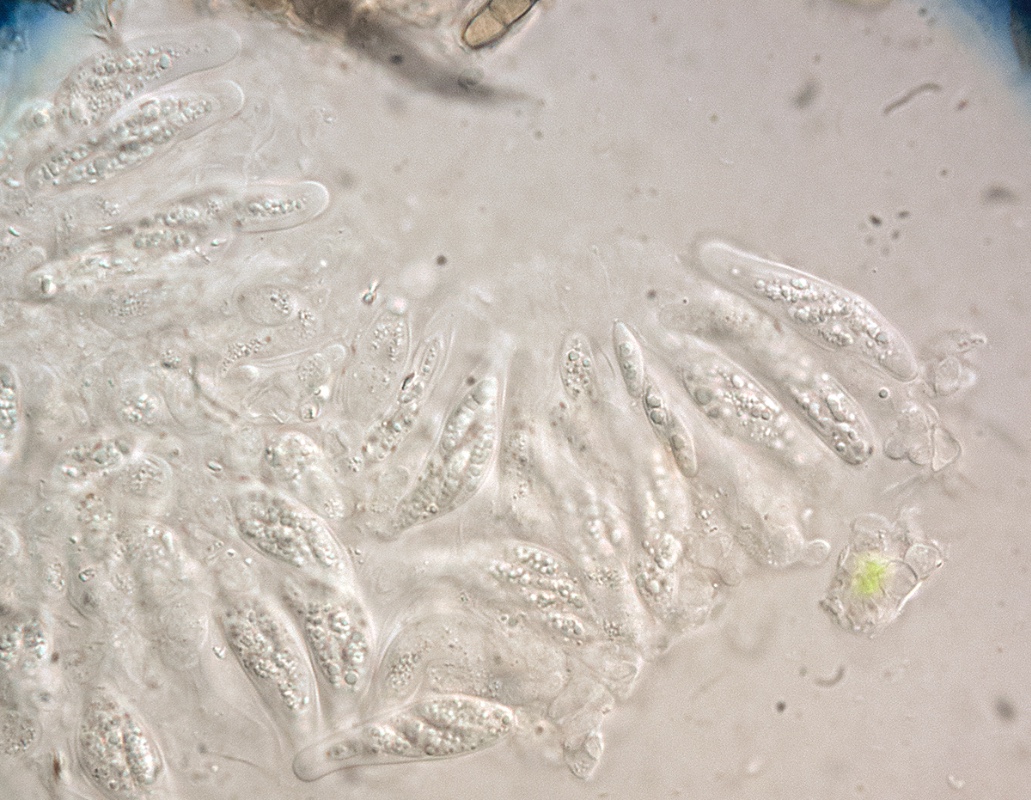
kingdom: Fungi
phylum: Ascomycota
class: Dothideomycetes
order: Microthyriales
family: Leptopeltidaceae
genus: Leptopeltis
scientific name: Leptopeltis nebulosa
